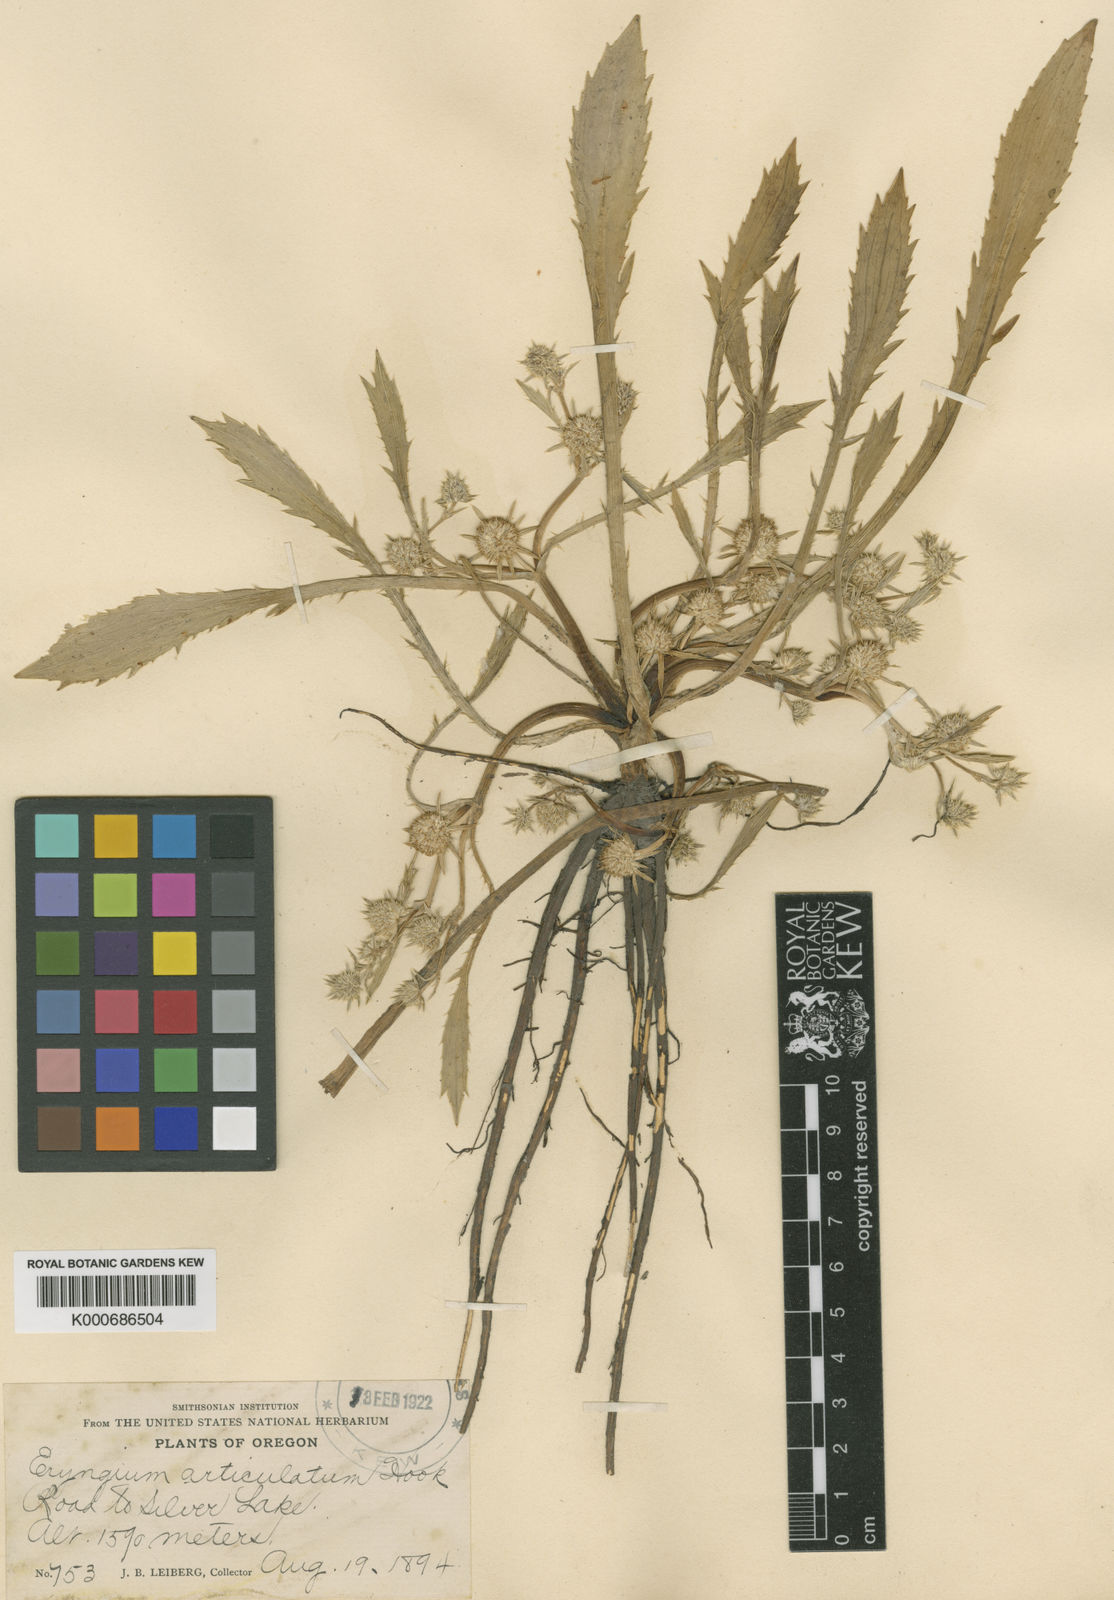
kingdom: Plantae
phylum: Tracheophyta
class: Magnoliopsida
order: Apiales
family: Apiaceae
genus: Eryngium
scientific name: Eryngium articulatum
